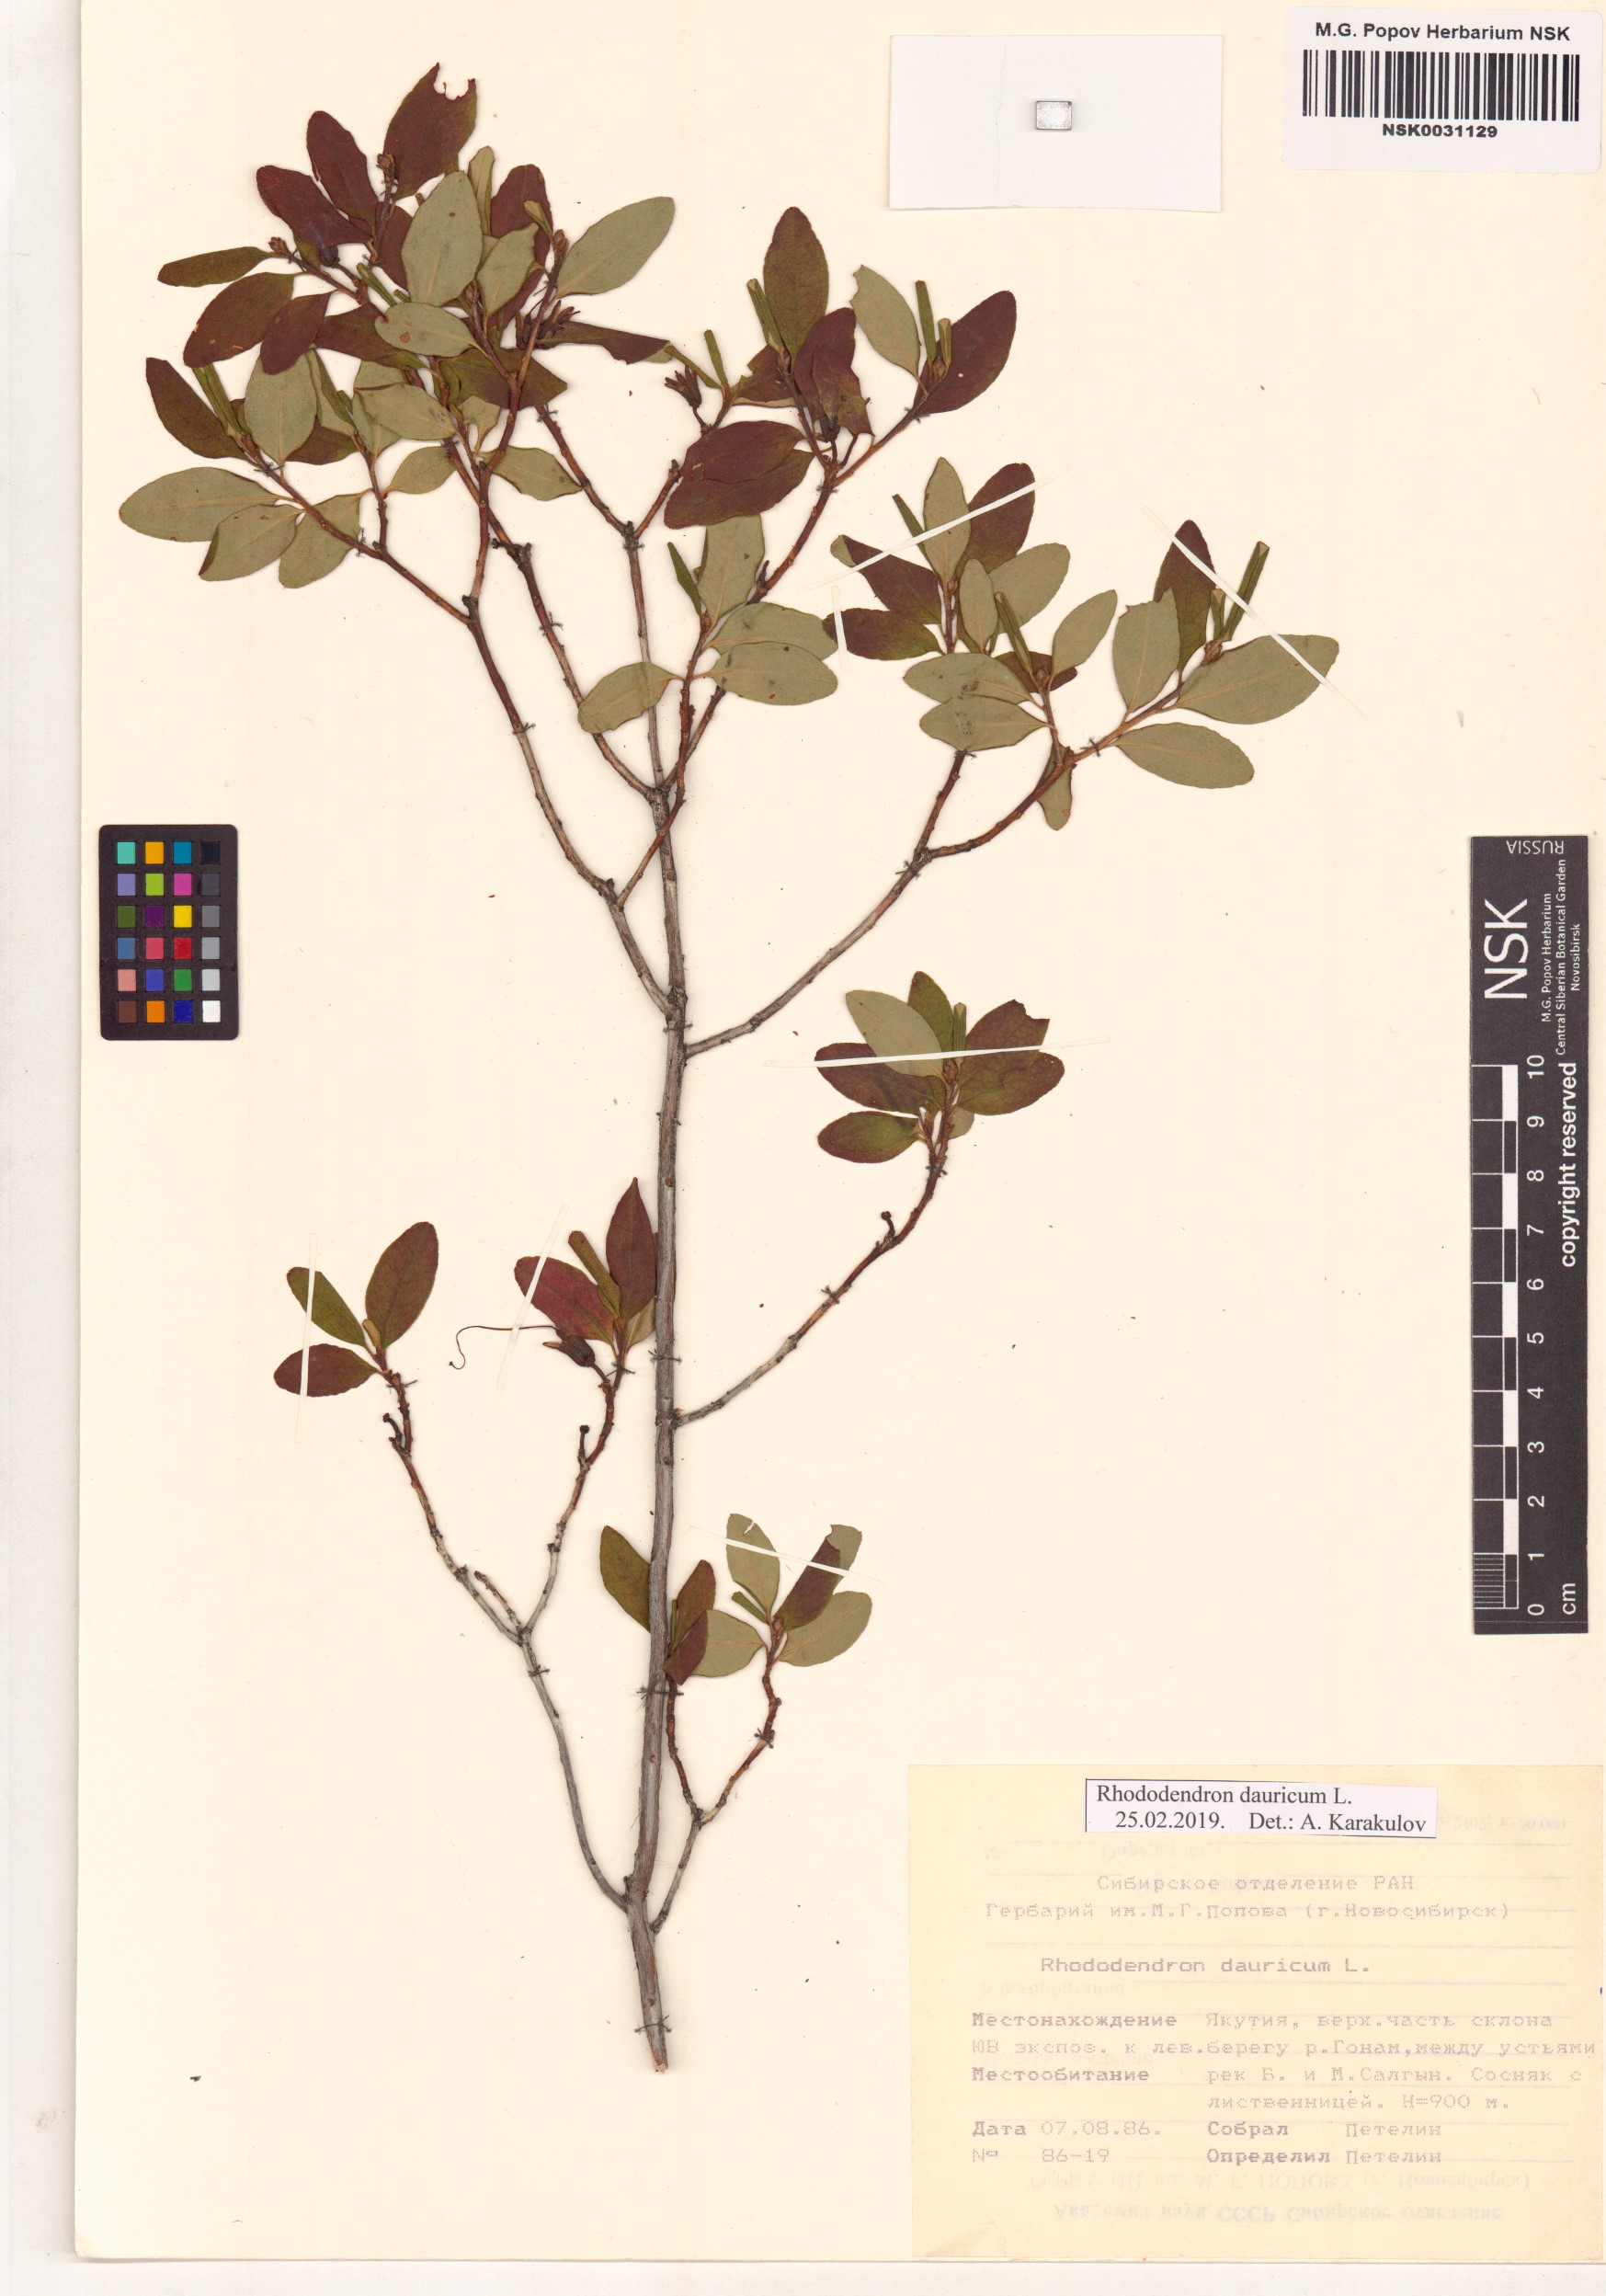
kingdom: Plantae
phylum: Tracheophyta
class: Magnoliopsida
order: Ericales
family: Ericaceae
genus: Rhododendron
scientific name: Rhododendron dauricum
